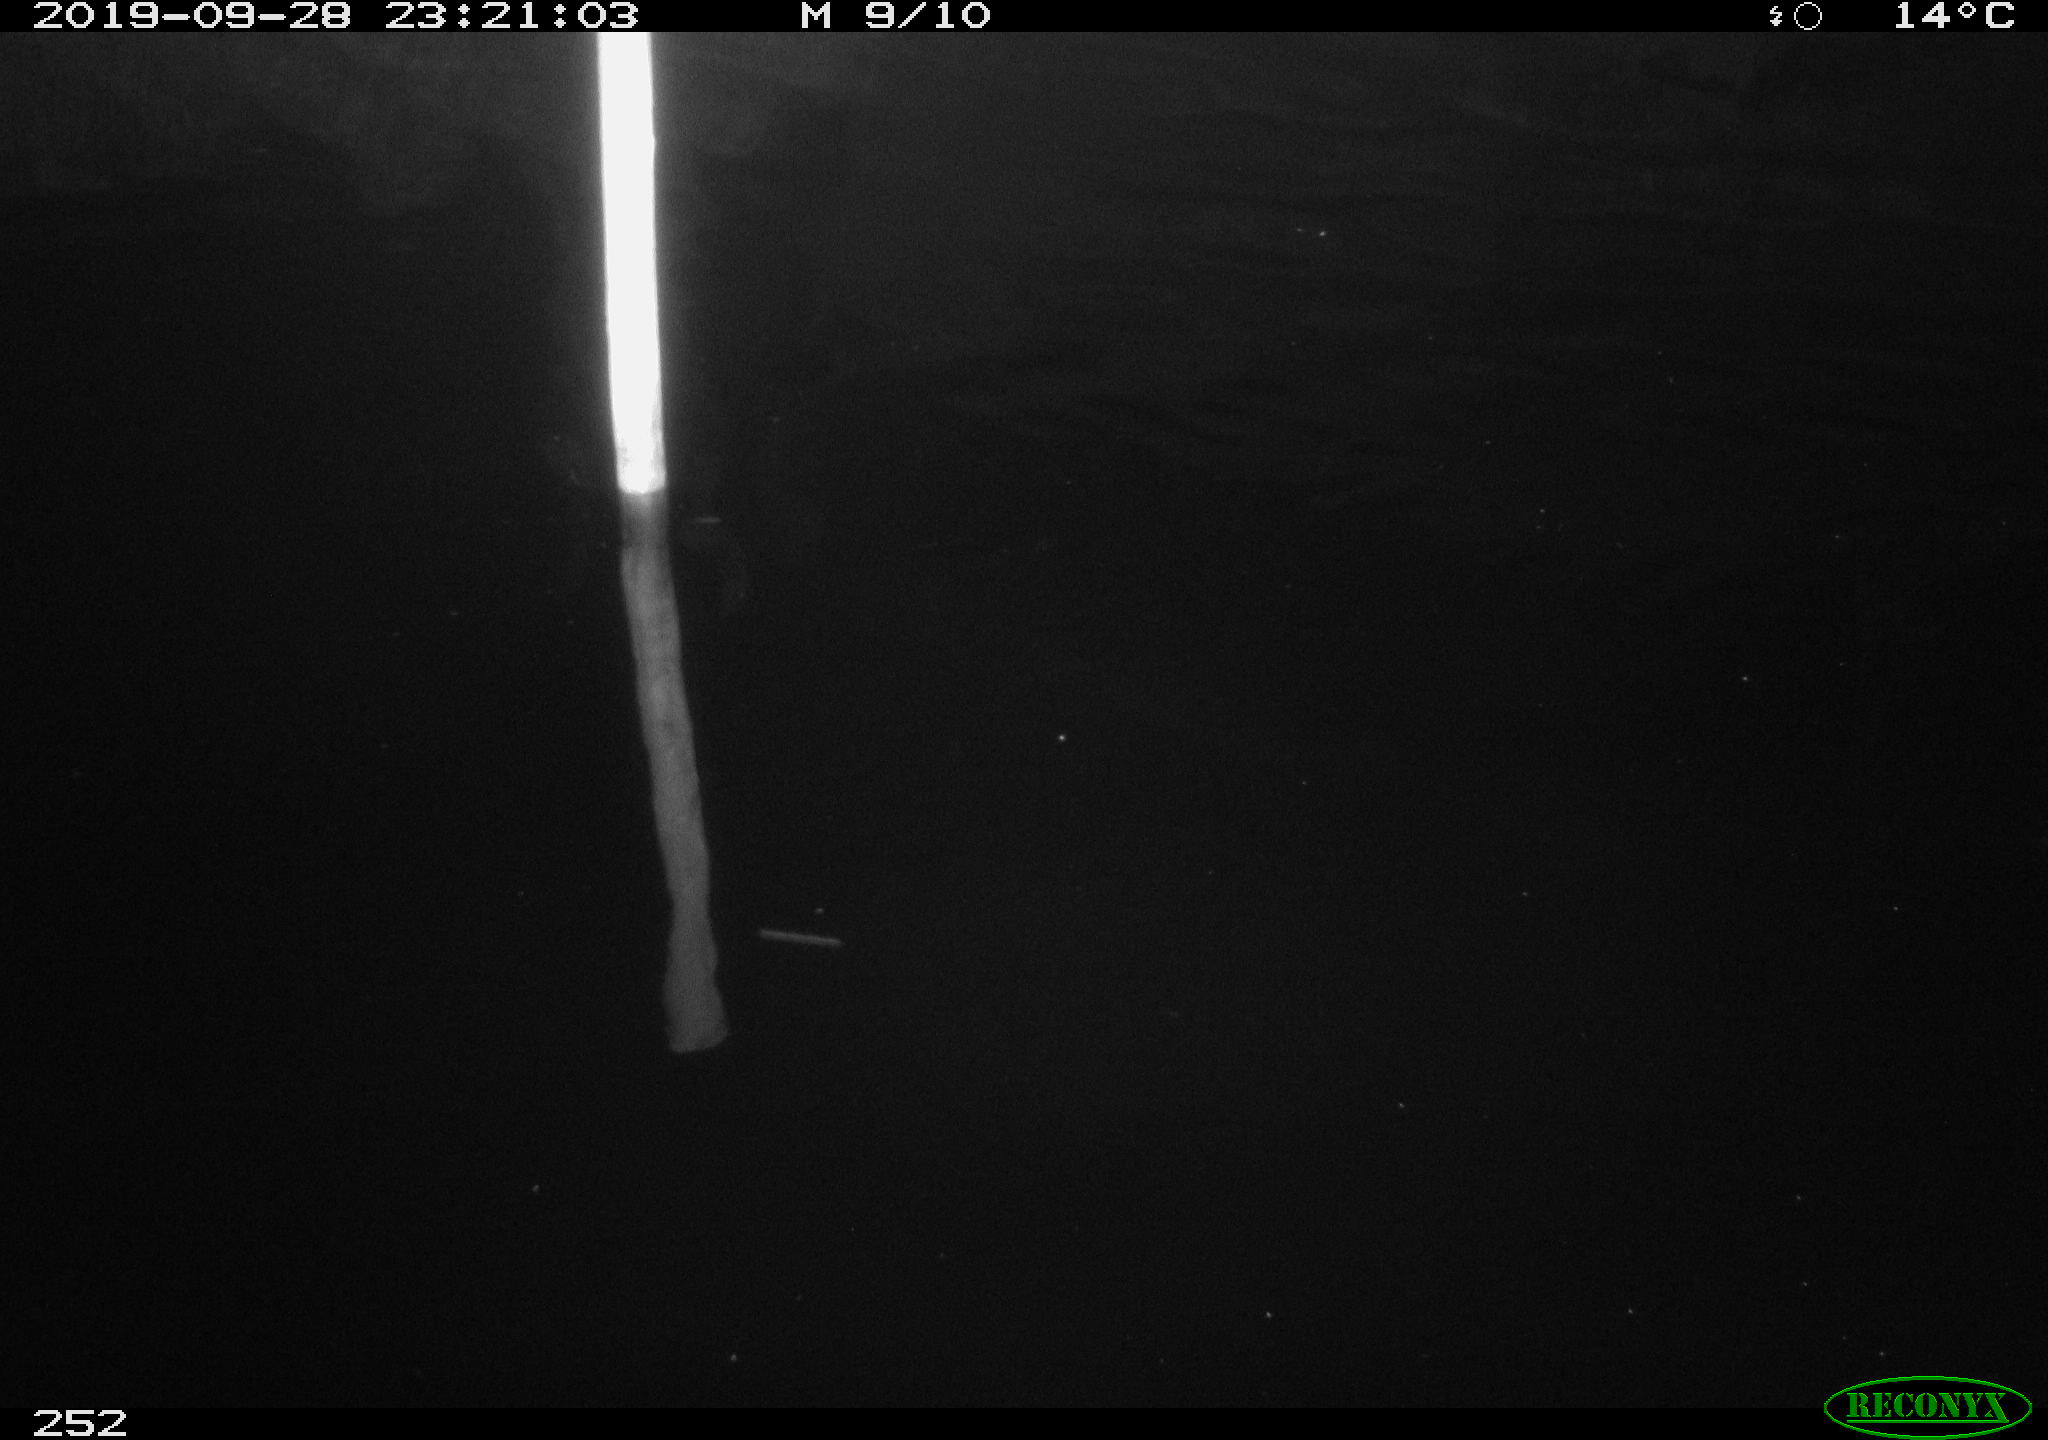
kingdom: Animalia
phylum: Chordata
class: Aves
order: Anseriformes
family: Anatidae
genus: Anas
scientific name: Anas platyrhynchos
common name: Mallard
